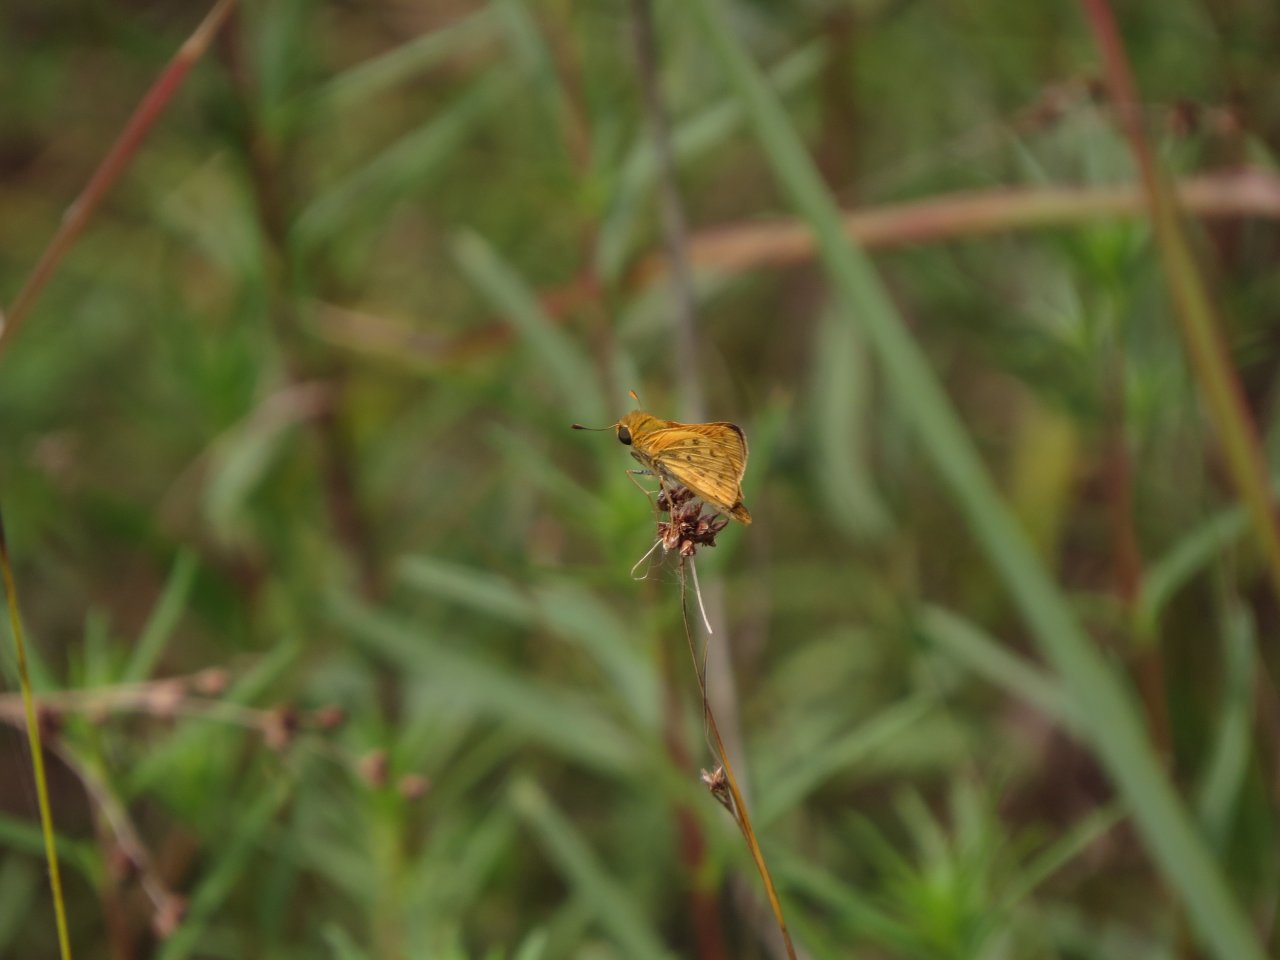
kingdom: Animalia
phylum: Arthropoda
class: Insecta
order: Lepidoptera
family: Hesperiidae
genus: Hylephila
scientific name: Hylephila phyleus
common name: Fiery Skipper
